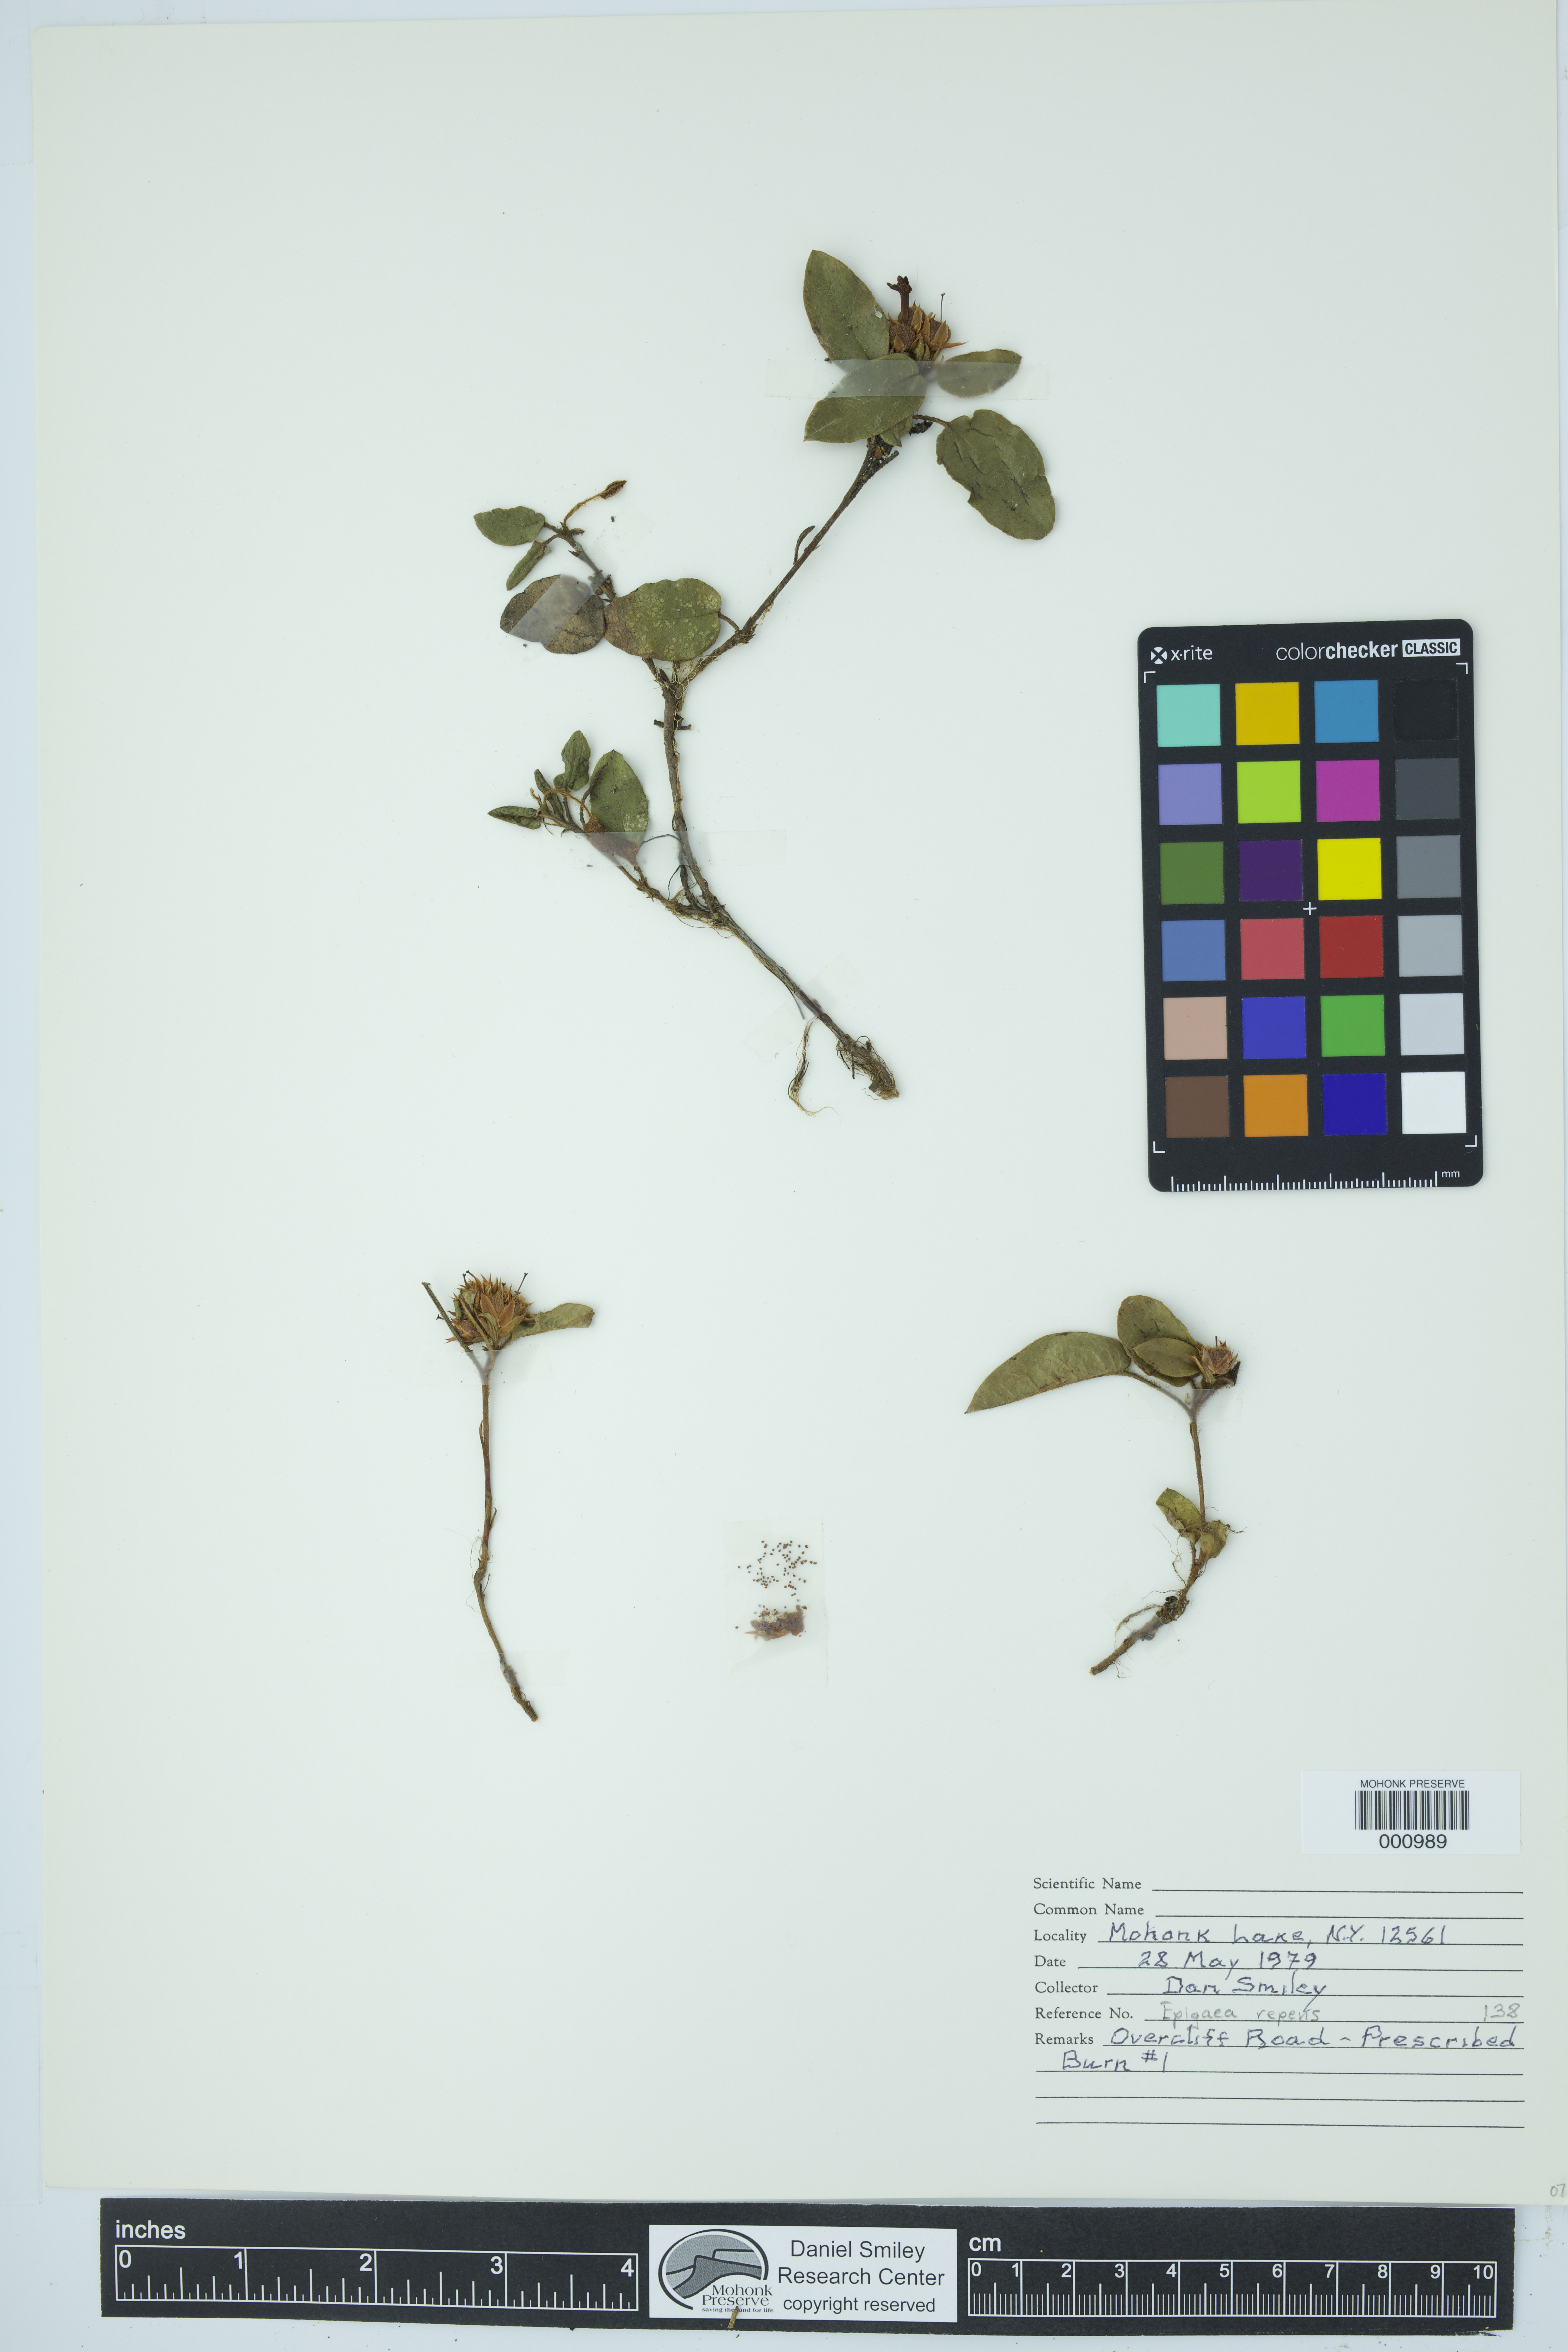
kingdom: Plantae
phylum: Tracheophyta
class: Magnoliopsida
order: Ericales
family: Ericaceae
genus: Epigaea
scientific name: Epigaea repens
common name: Gravelroot
